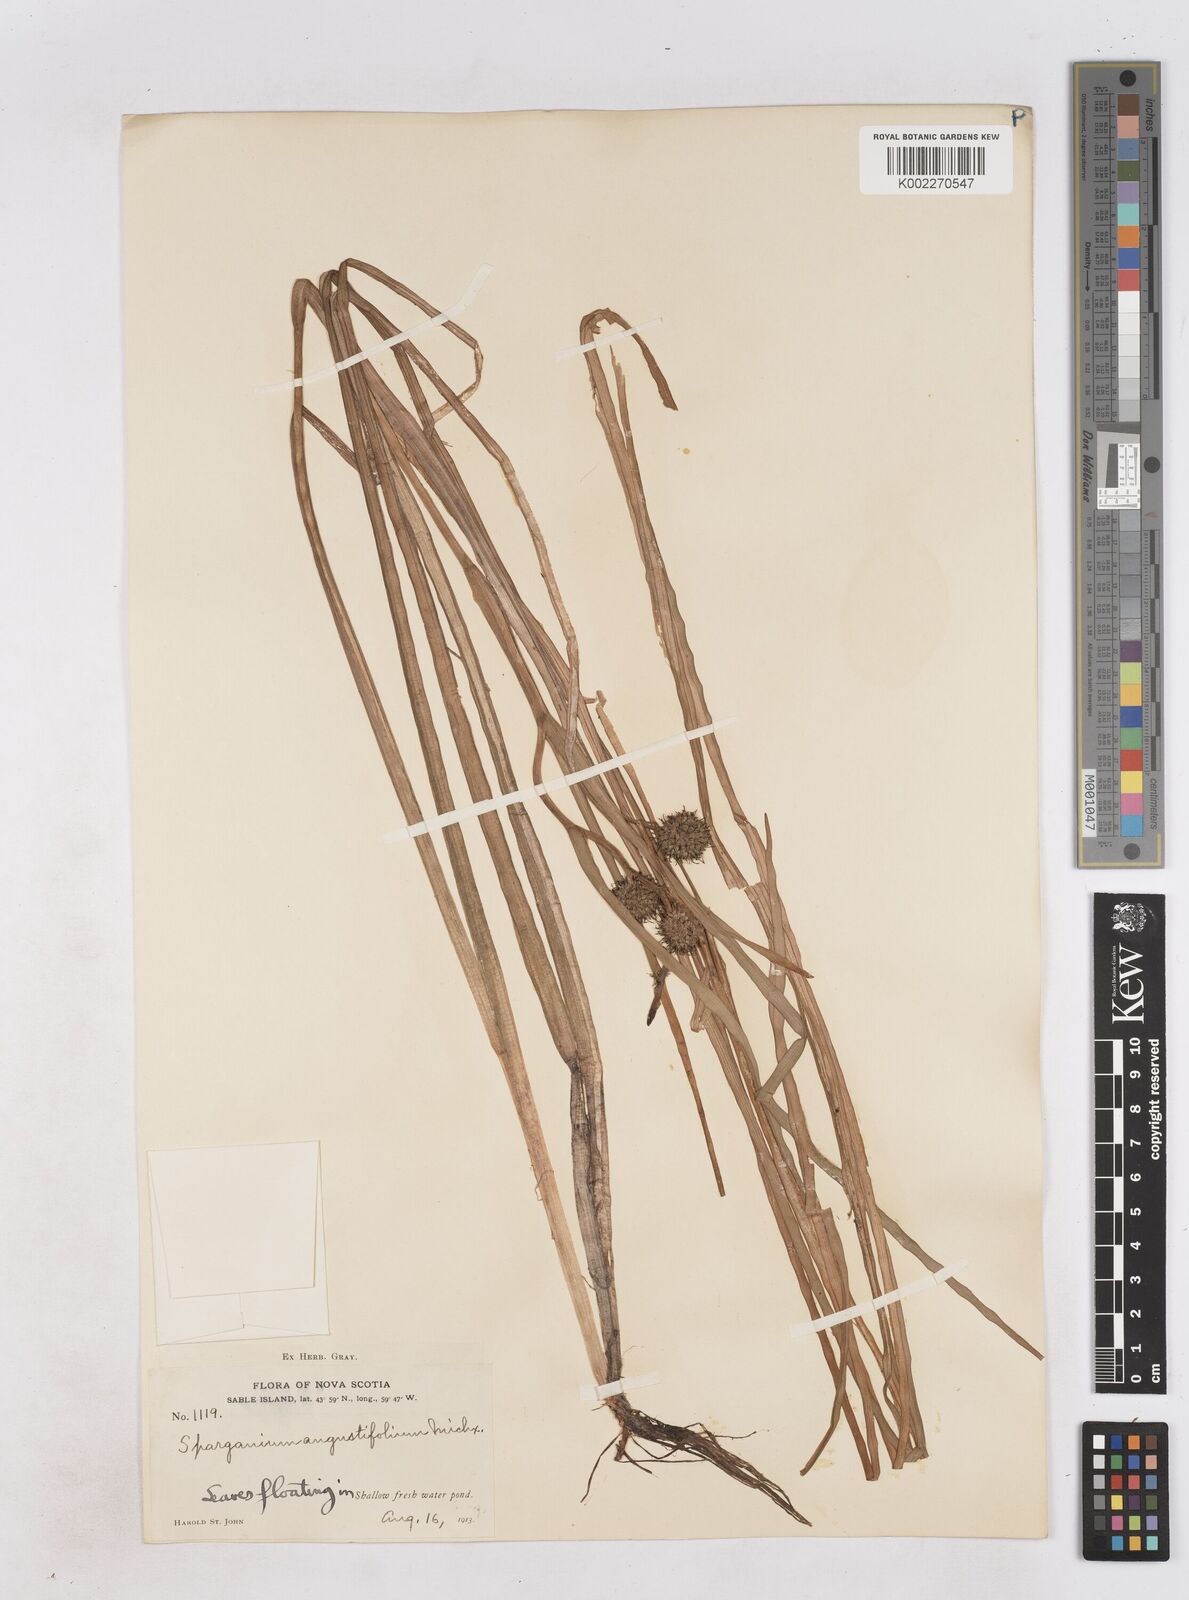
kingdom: Plantae
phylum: Tracheophyta
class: Liliopsida
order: Poales
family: Typhaceae
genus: Sparganium
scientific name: Sparganium angustifolium
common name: Floating bur-reed
